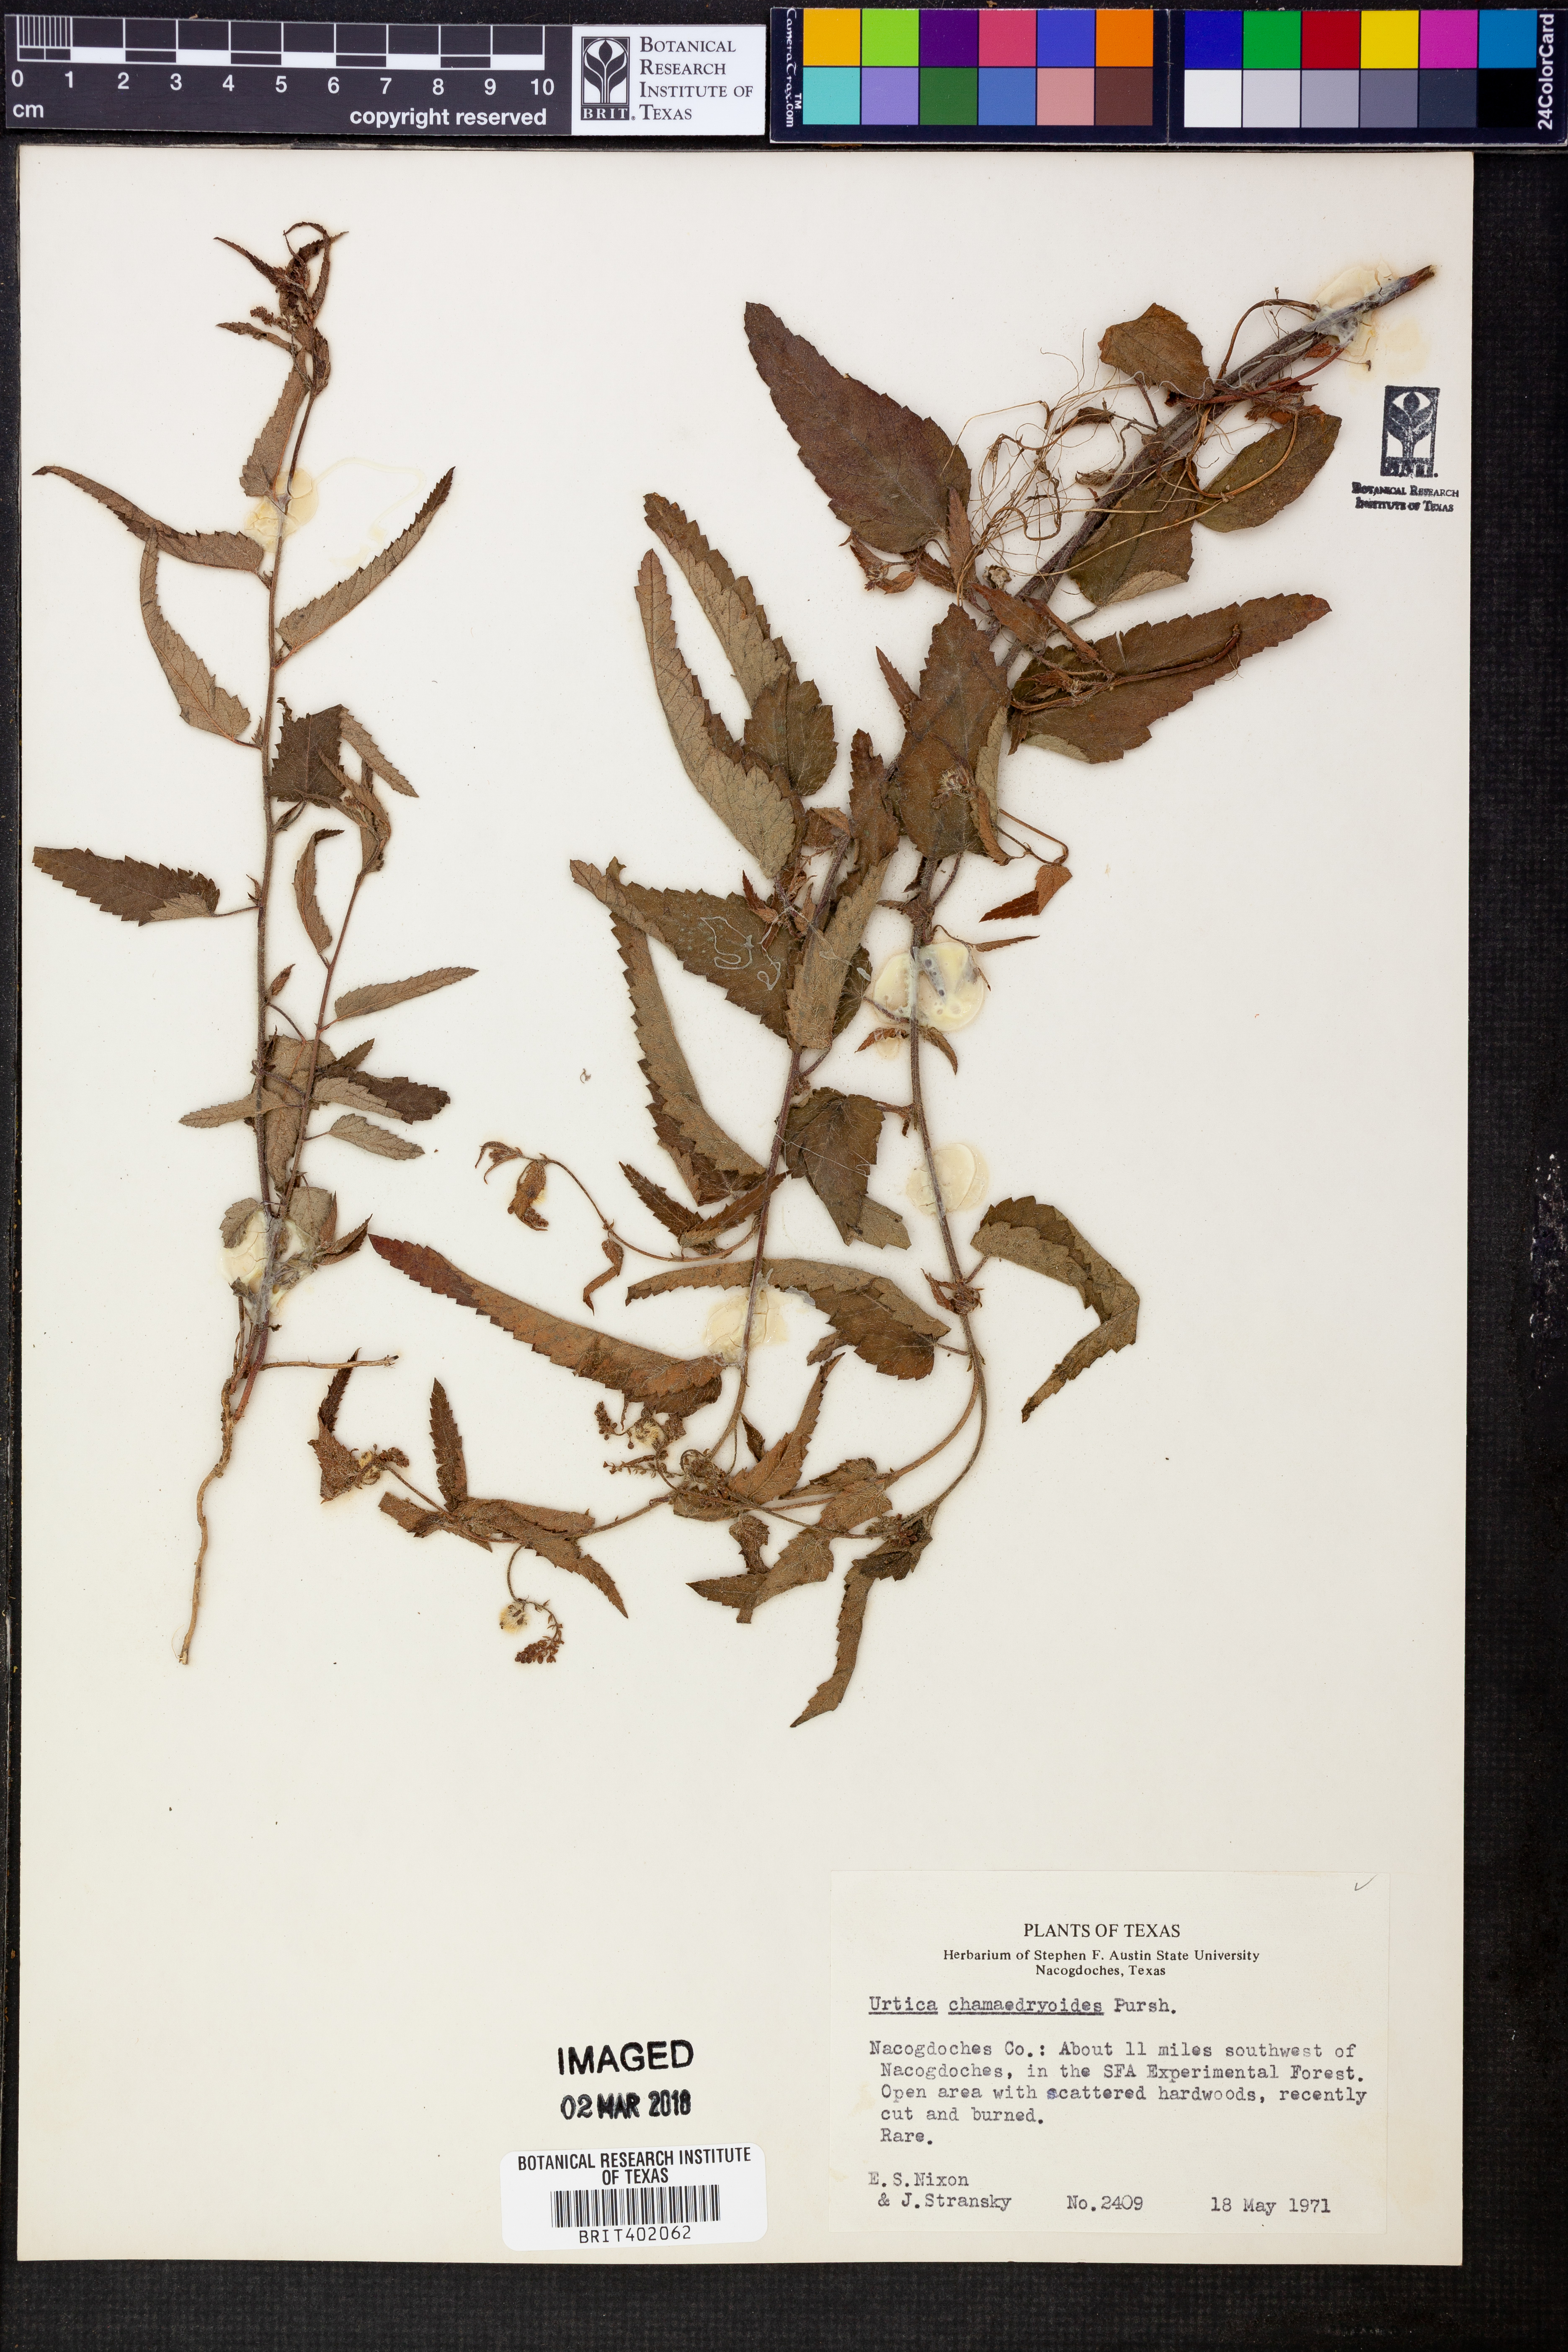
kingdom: Plantae
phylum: Tracheophyta
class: Magnoliopsida
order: Rosales
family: Urticaceae
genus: Urtica
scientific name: Urtica chamaedryoides
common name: Heart-leaf nettle
